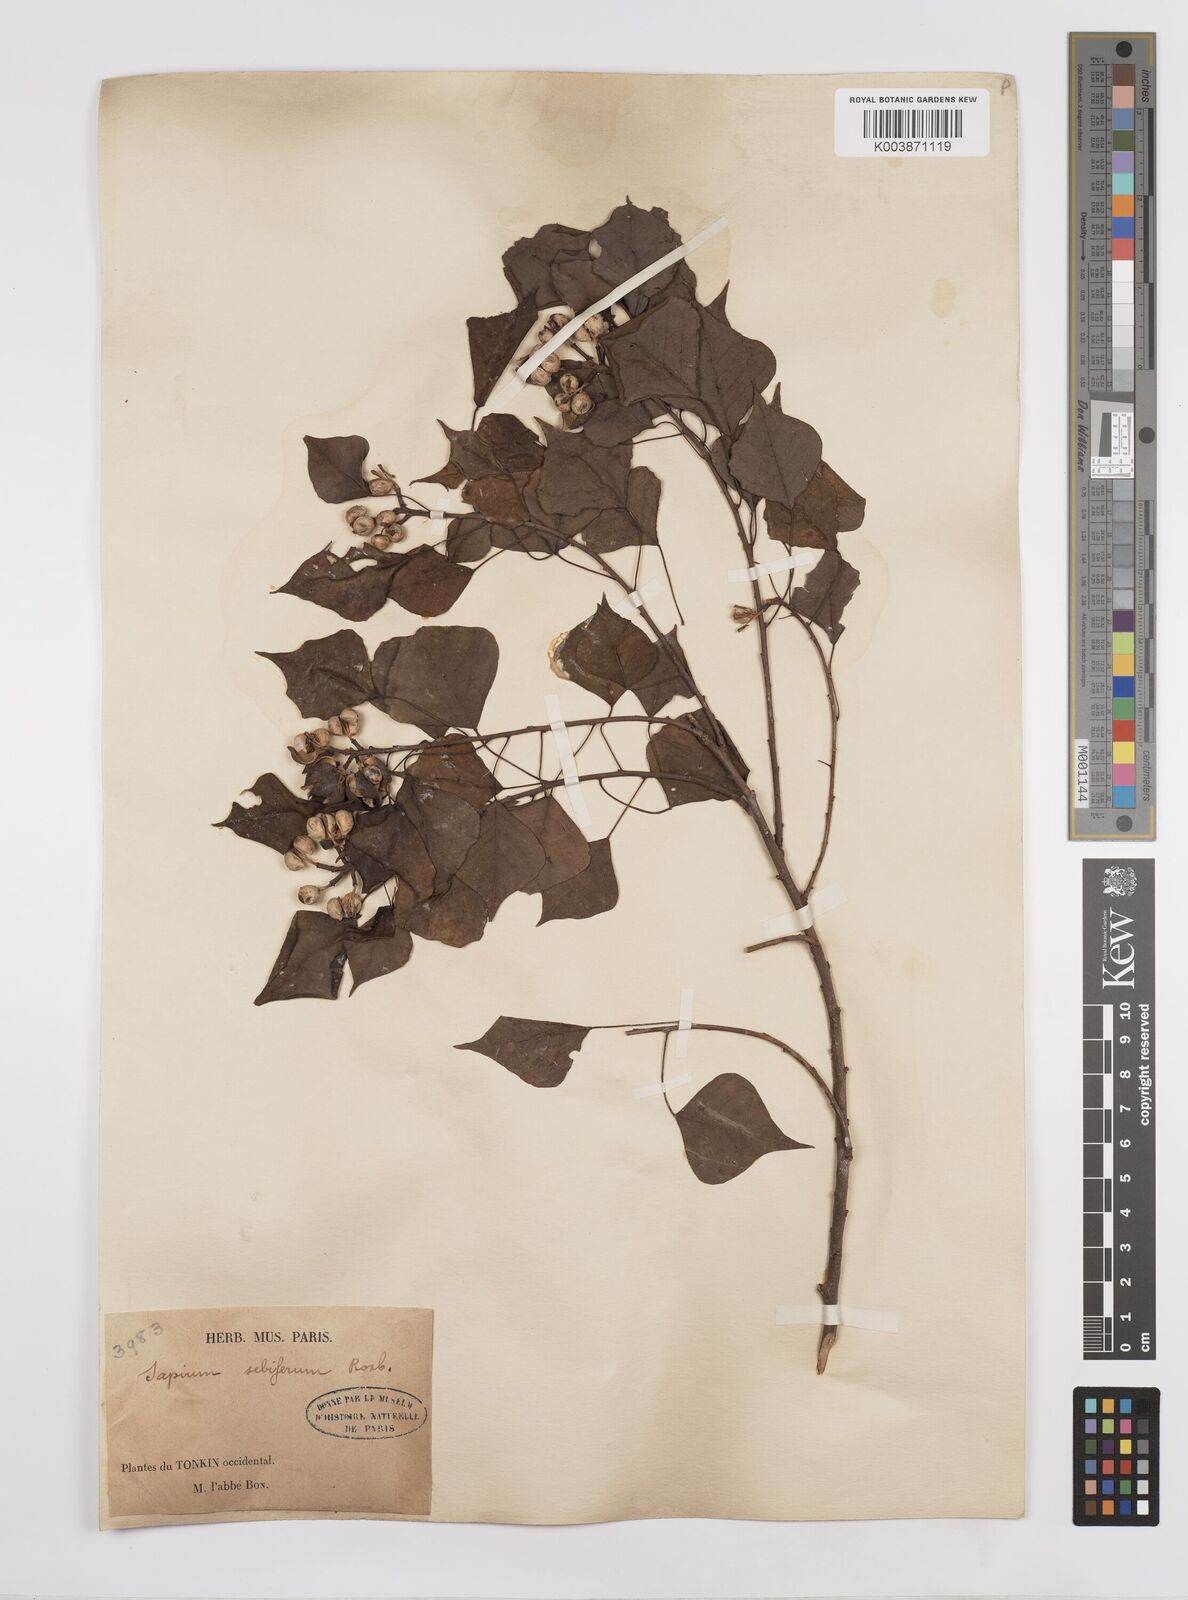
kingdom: Plantae
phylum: Tracheophyta
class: Magnoliopsida
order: Malpighiales
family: Euphorbiaceae
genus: Triadica
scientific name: Triadica sebifera
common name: Chinese tallow
